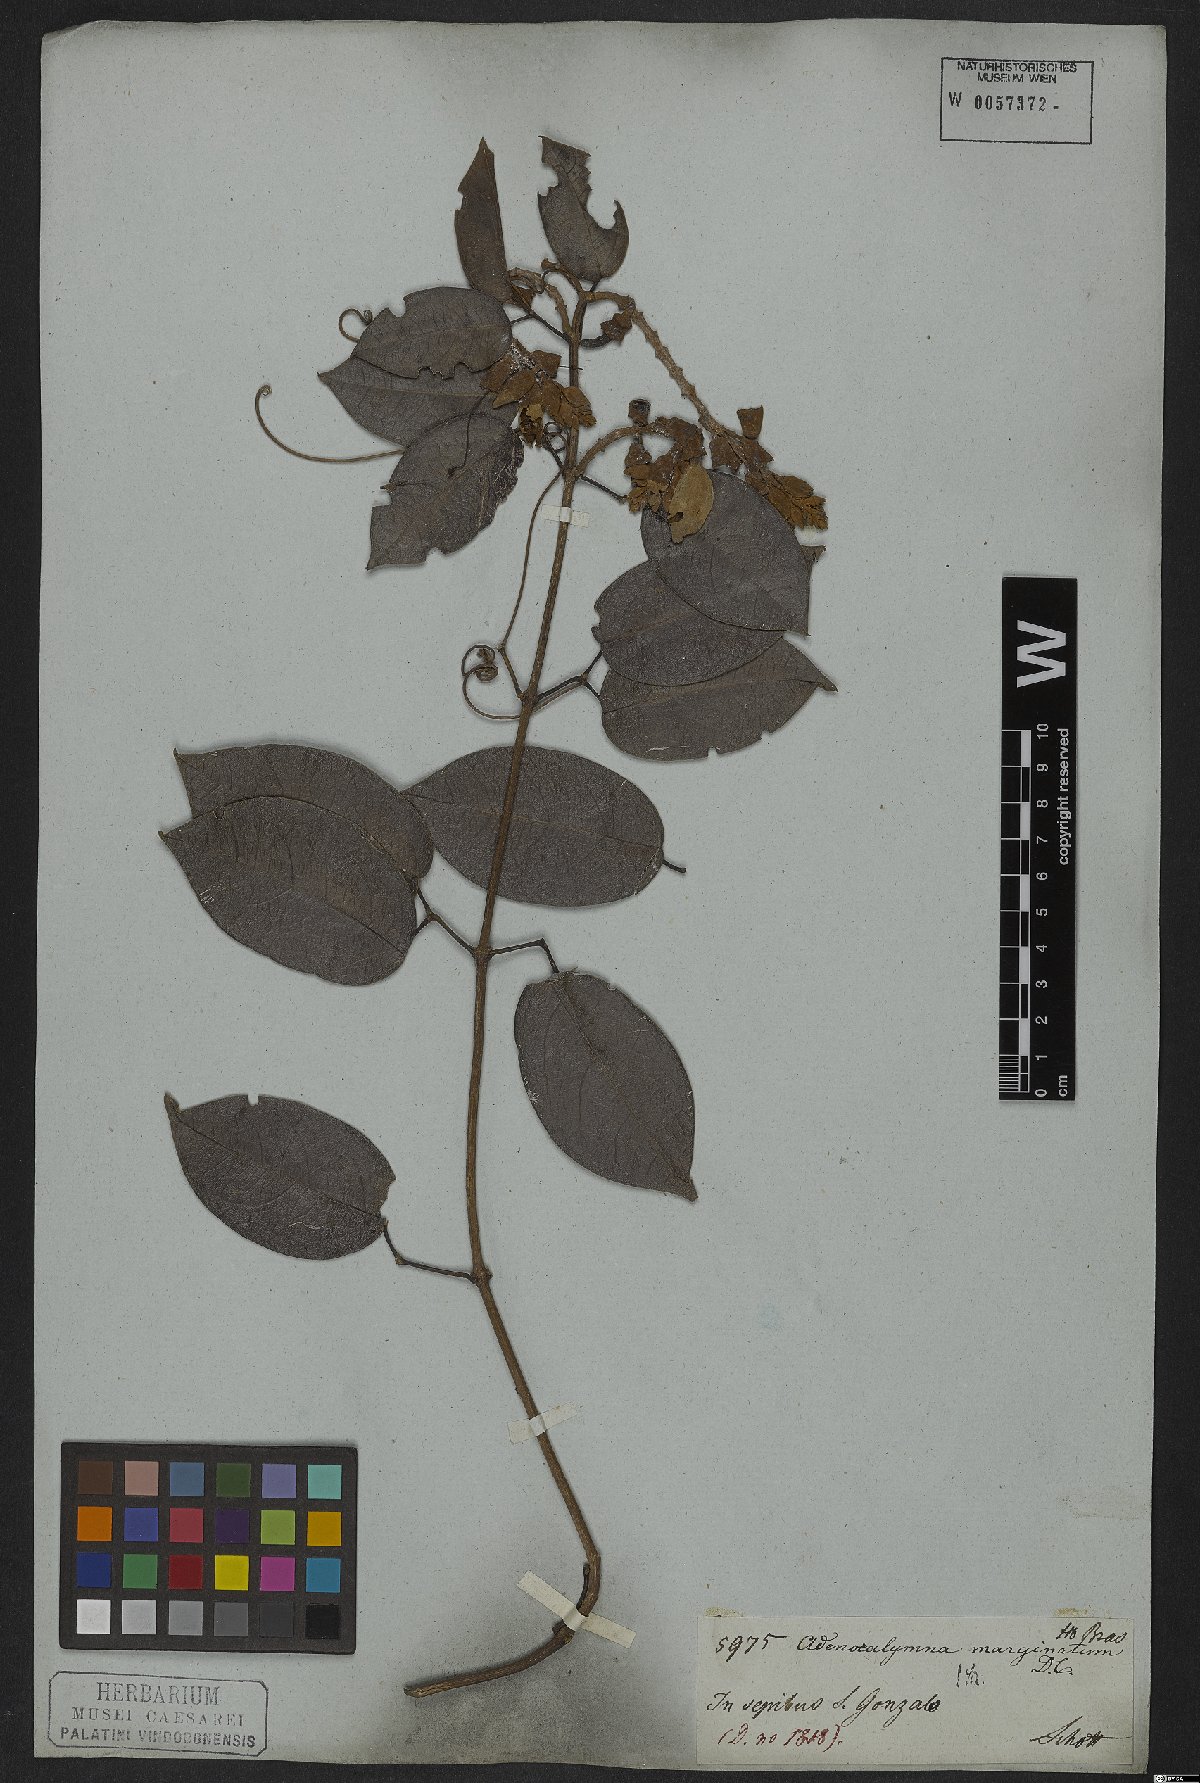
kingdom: Plantae
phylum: Tracheophyta
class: Magnoliopsida
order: Lamiales
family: Bignoniaceae
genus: Adenocalymma
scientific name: Adenocalymma marginatum
